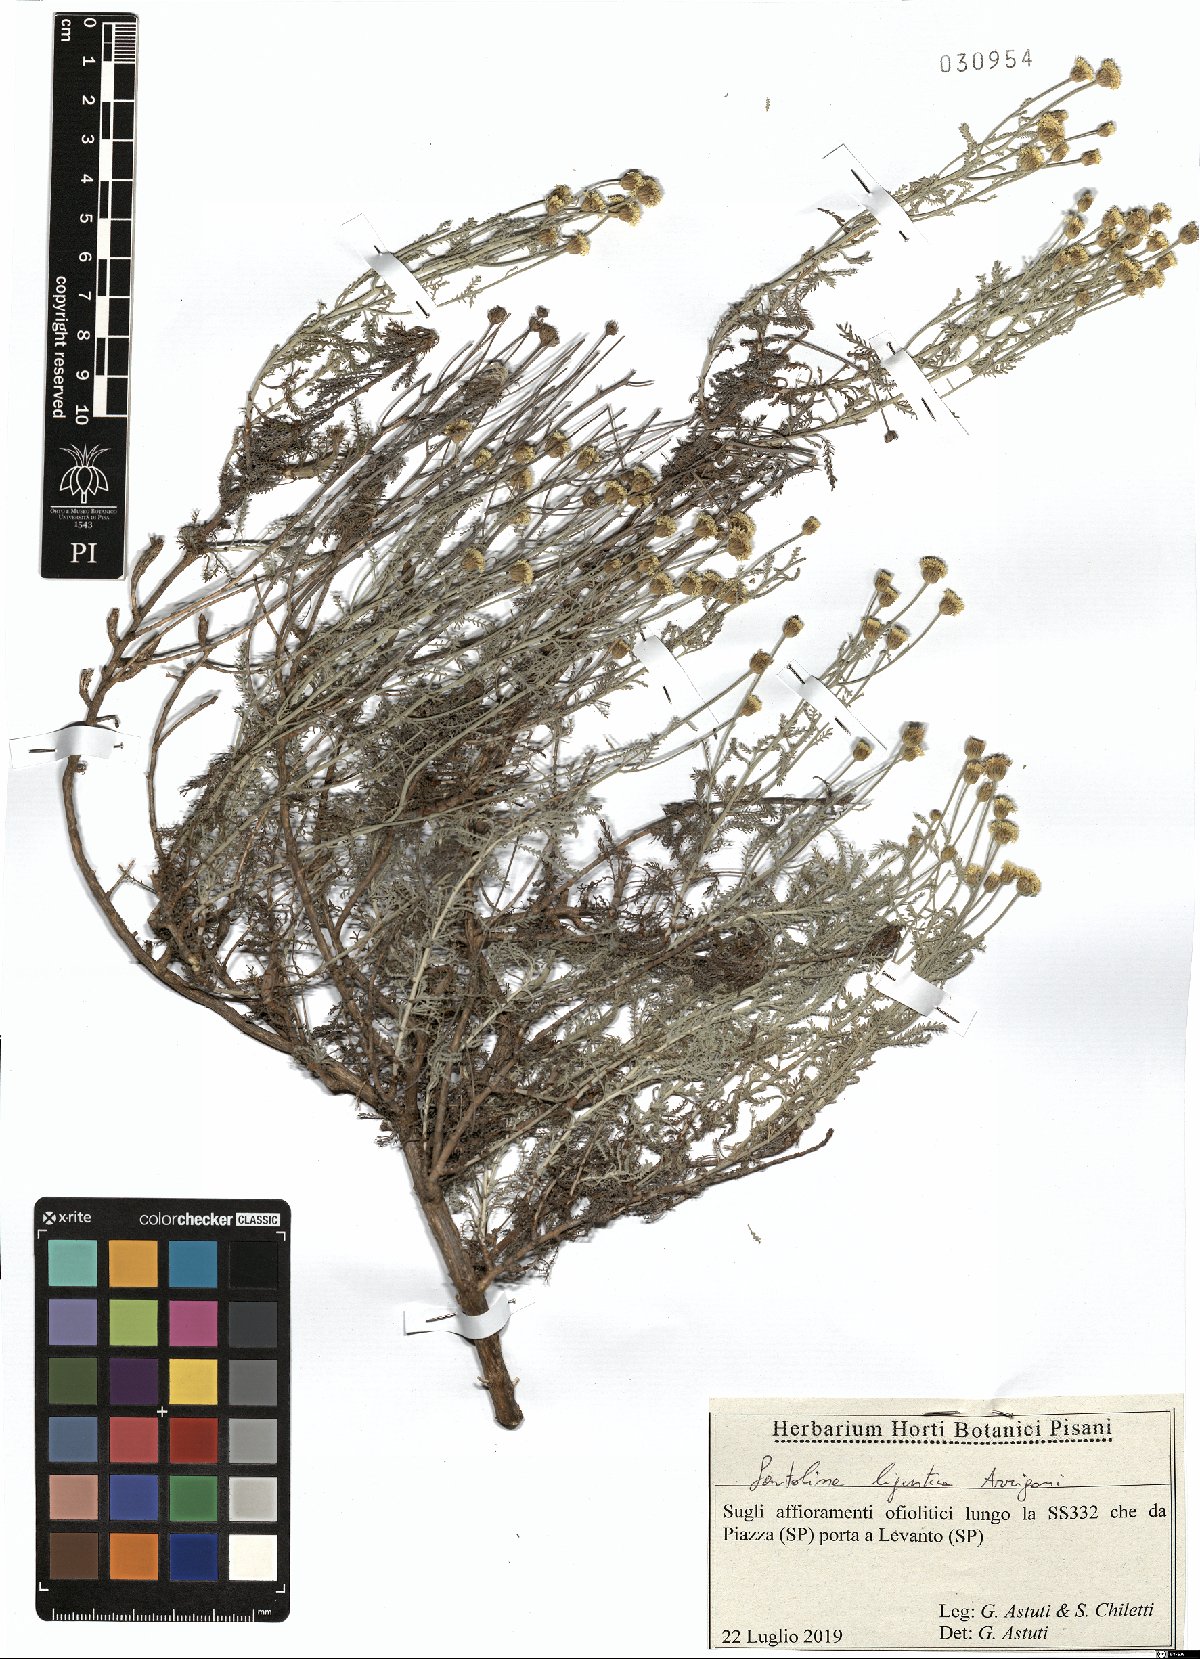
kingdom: Plantae
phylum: Tracheophyta
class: Magnoliopsida
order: Asterales
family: Asteraceae
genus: Santolina
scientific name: Santolina ligustica
